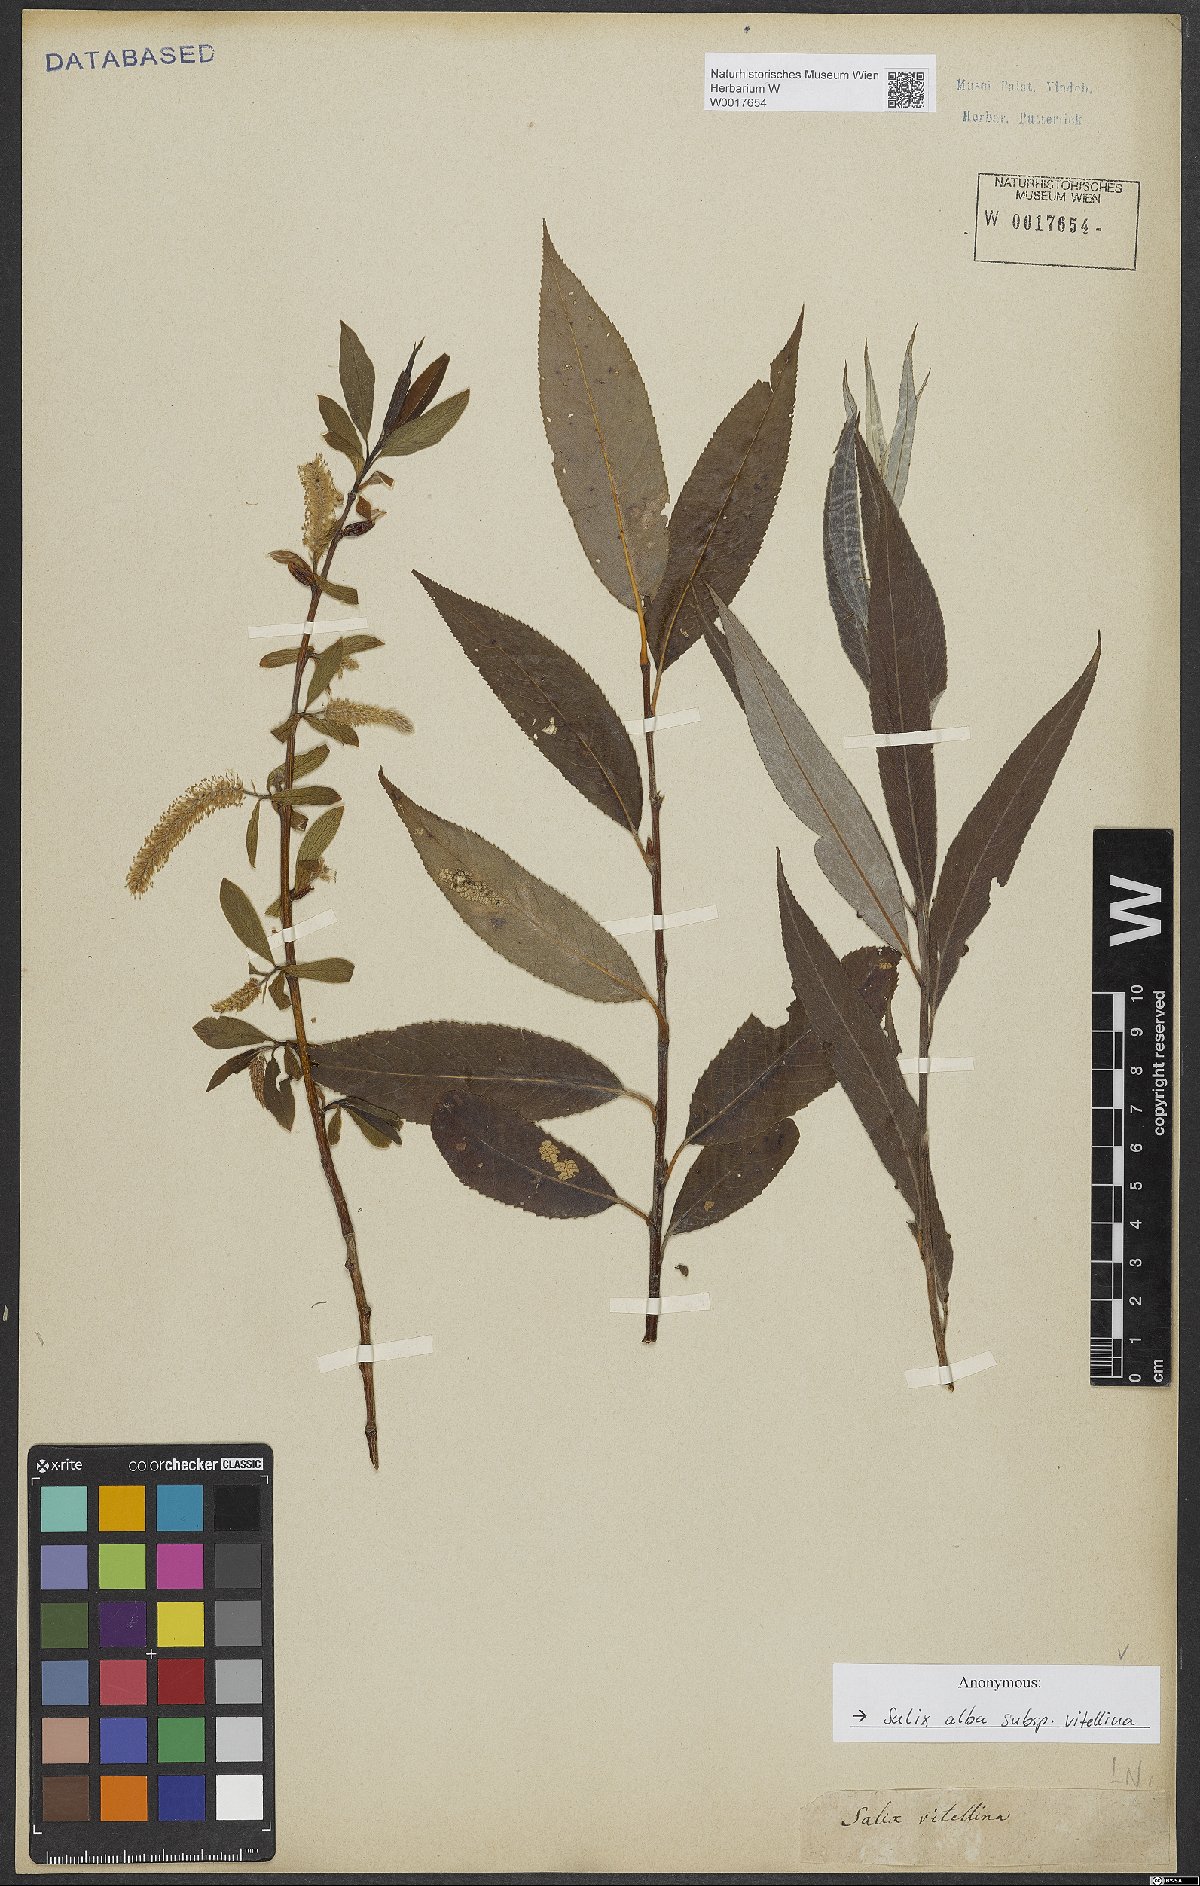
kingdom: Plantae
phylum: Tracheophyta
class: Magnoliopsida
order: Malpighiales
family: Salicaceae
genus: Salix
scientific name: Salix alba
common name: White willow
